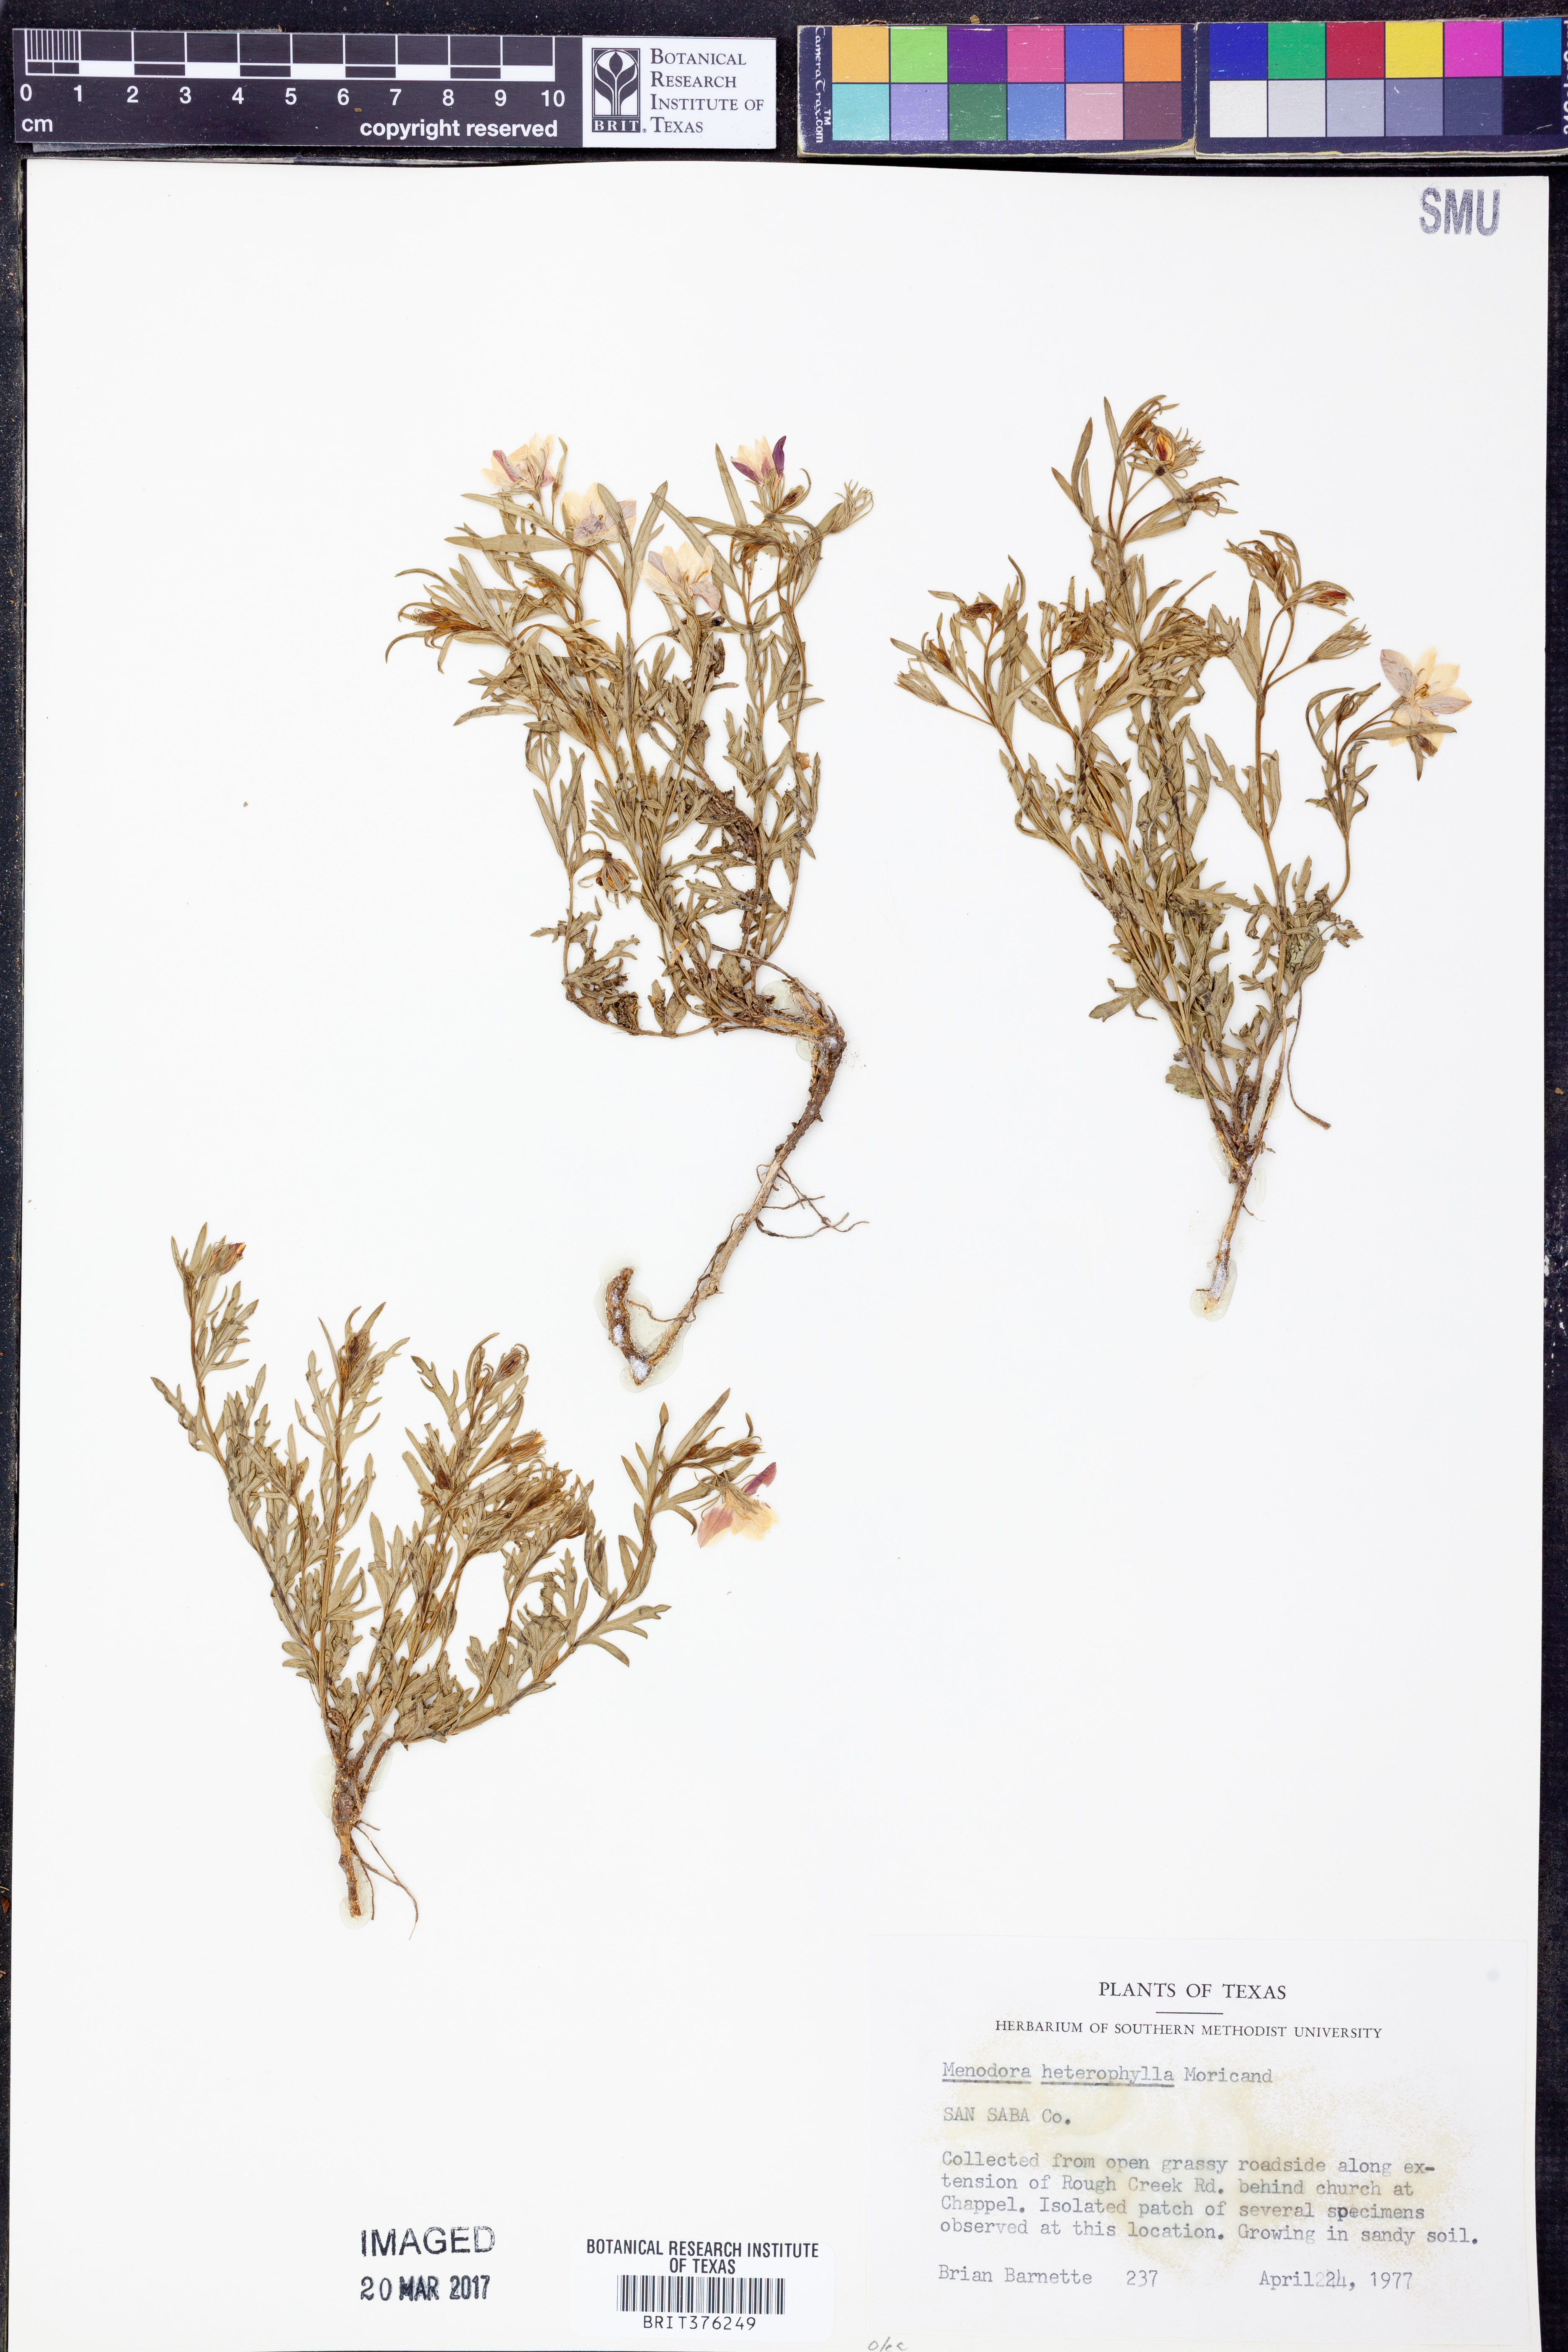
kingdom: Plantae
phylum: Tracheophyta
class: Magnoliopsida
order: Lamiales
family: Oleaceae
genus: Menodora
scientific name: Menodora heterophylla
